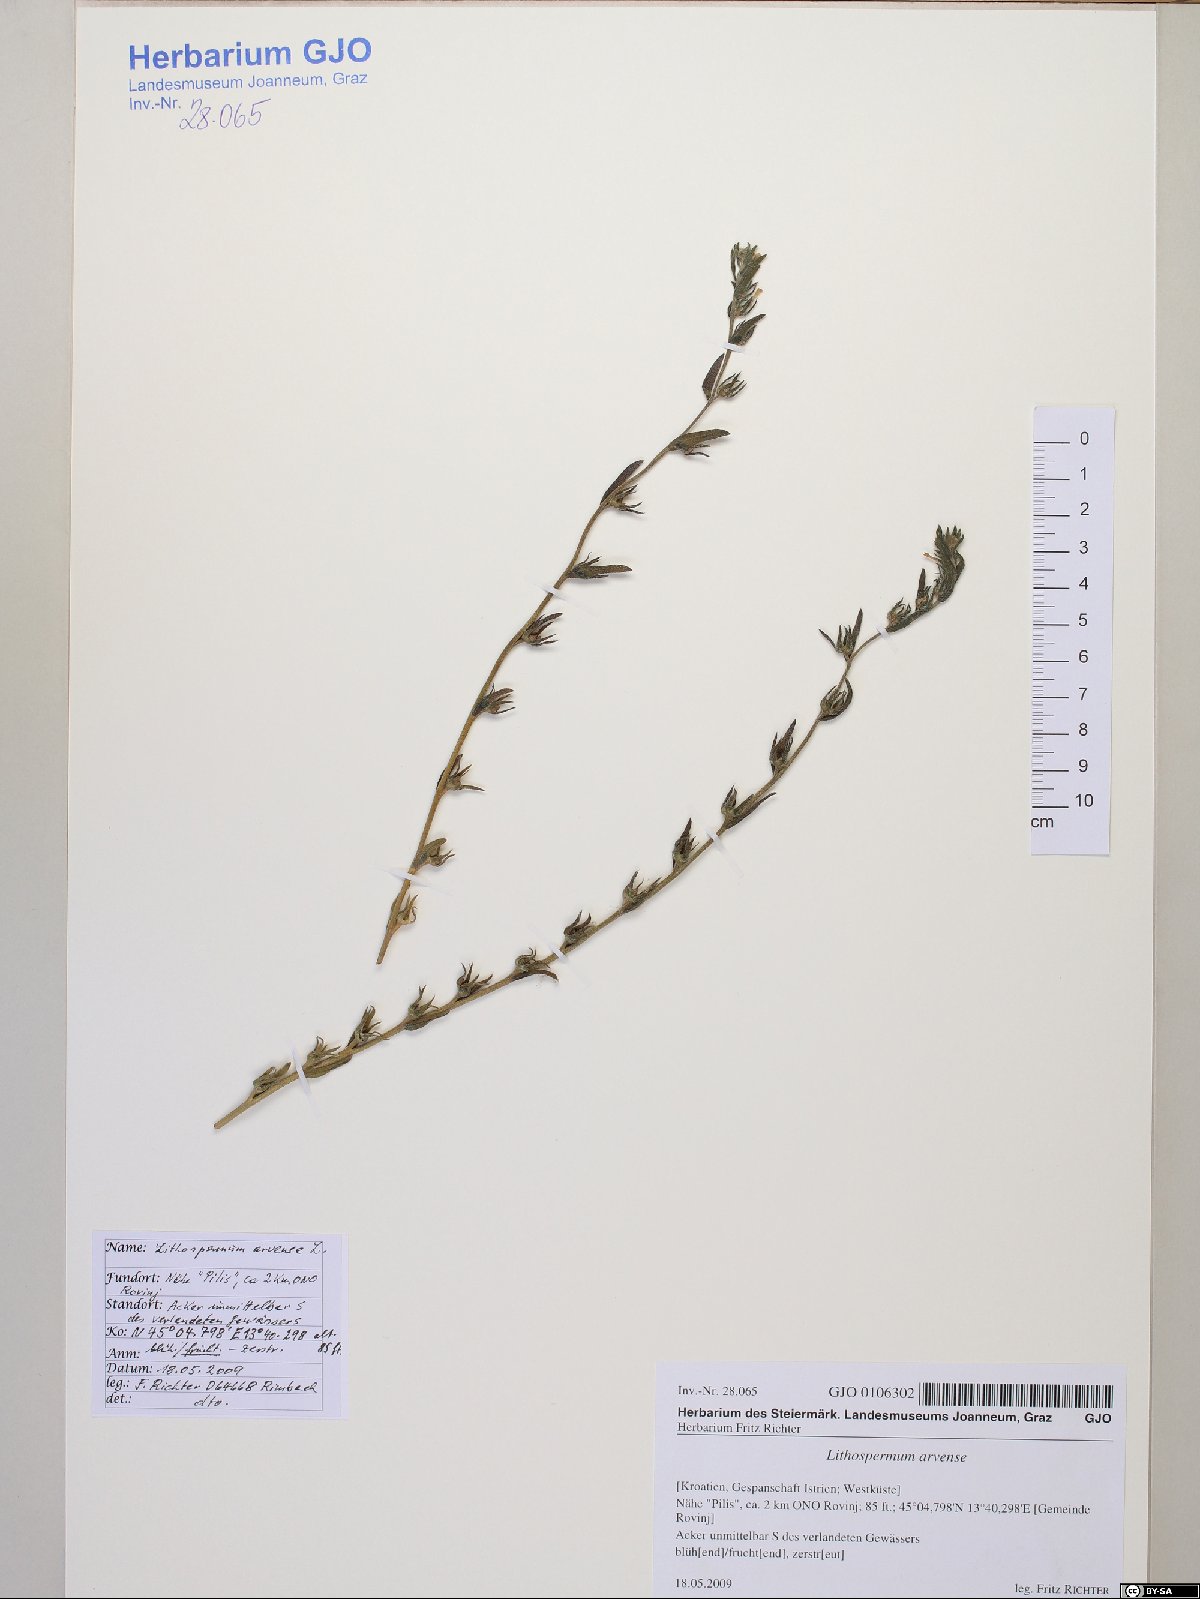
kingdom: Plantae
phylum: Tracheophyta
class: Magnoliopsida
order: Boraginales
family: Boraginaceae
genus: Buglossoides
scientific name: Buglossoides arvensis
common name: Corn gromwell
